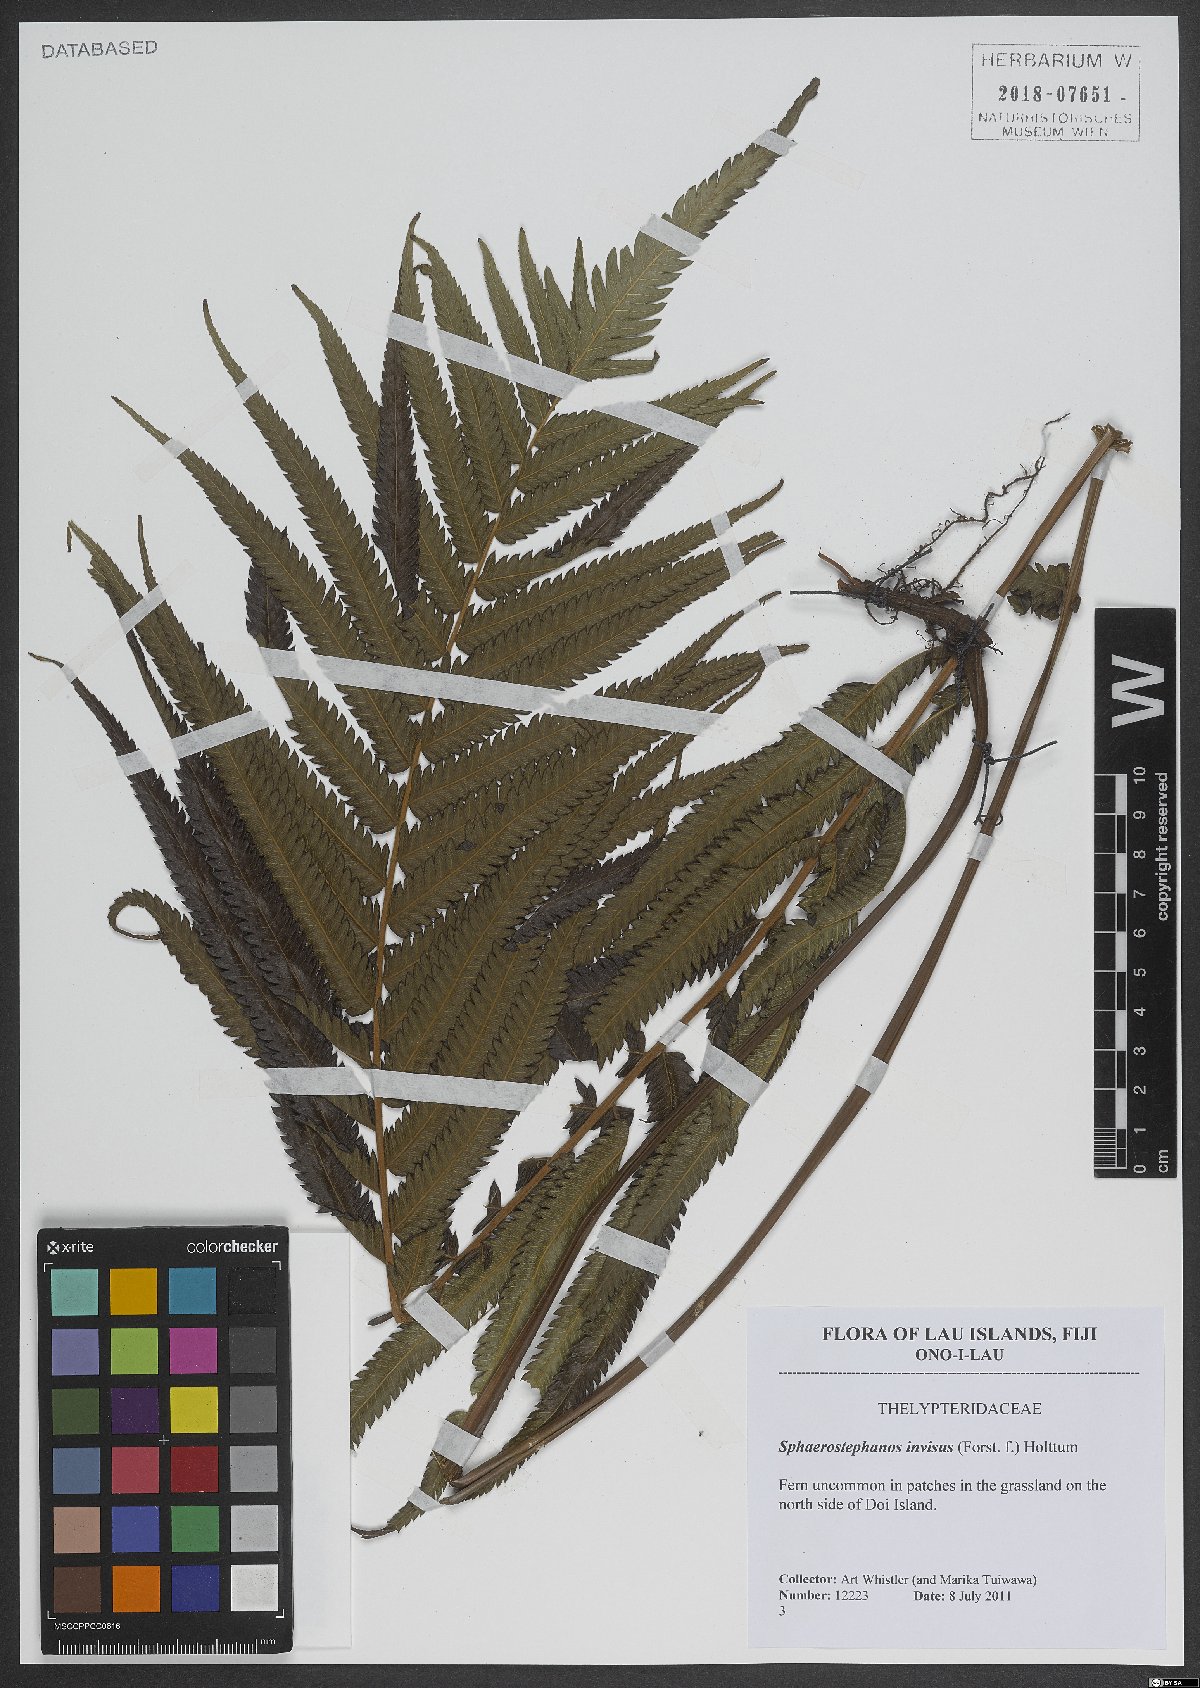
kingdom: Plantae
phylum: Tracheophyta
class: Polypodiopsida
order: Polypodiales
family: Thelypteridaceae
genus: Strophocaulon
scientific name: Strophocaulon invisum
